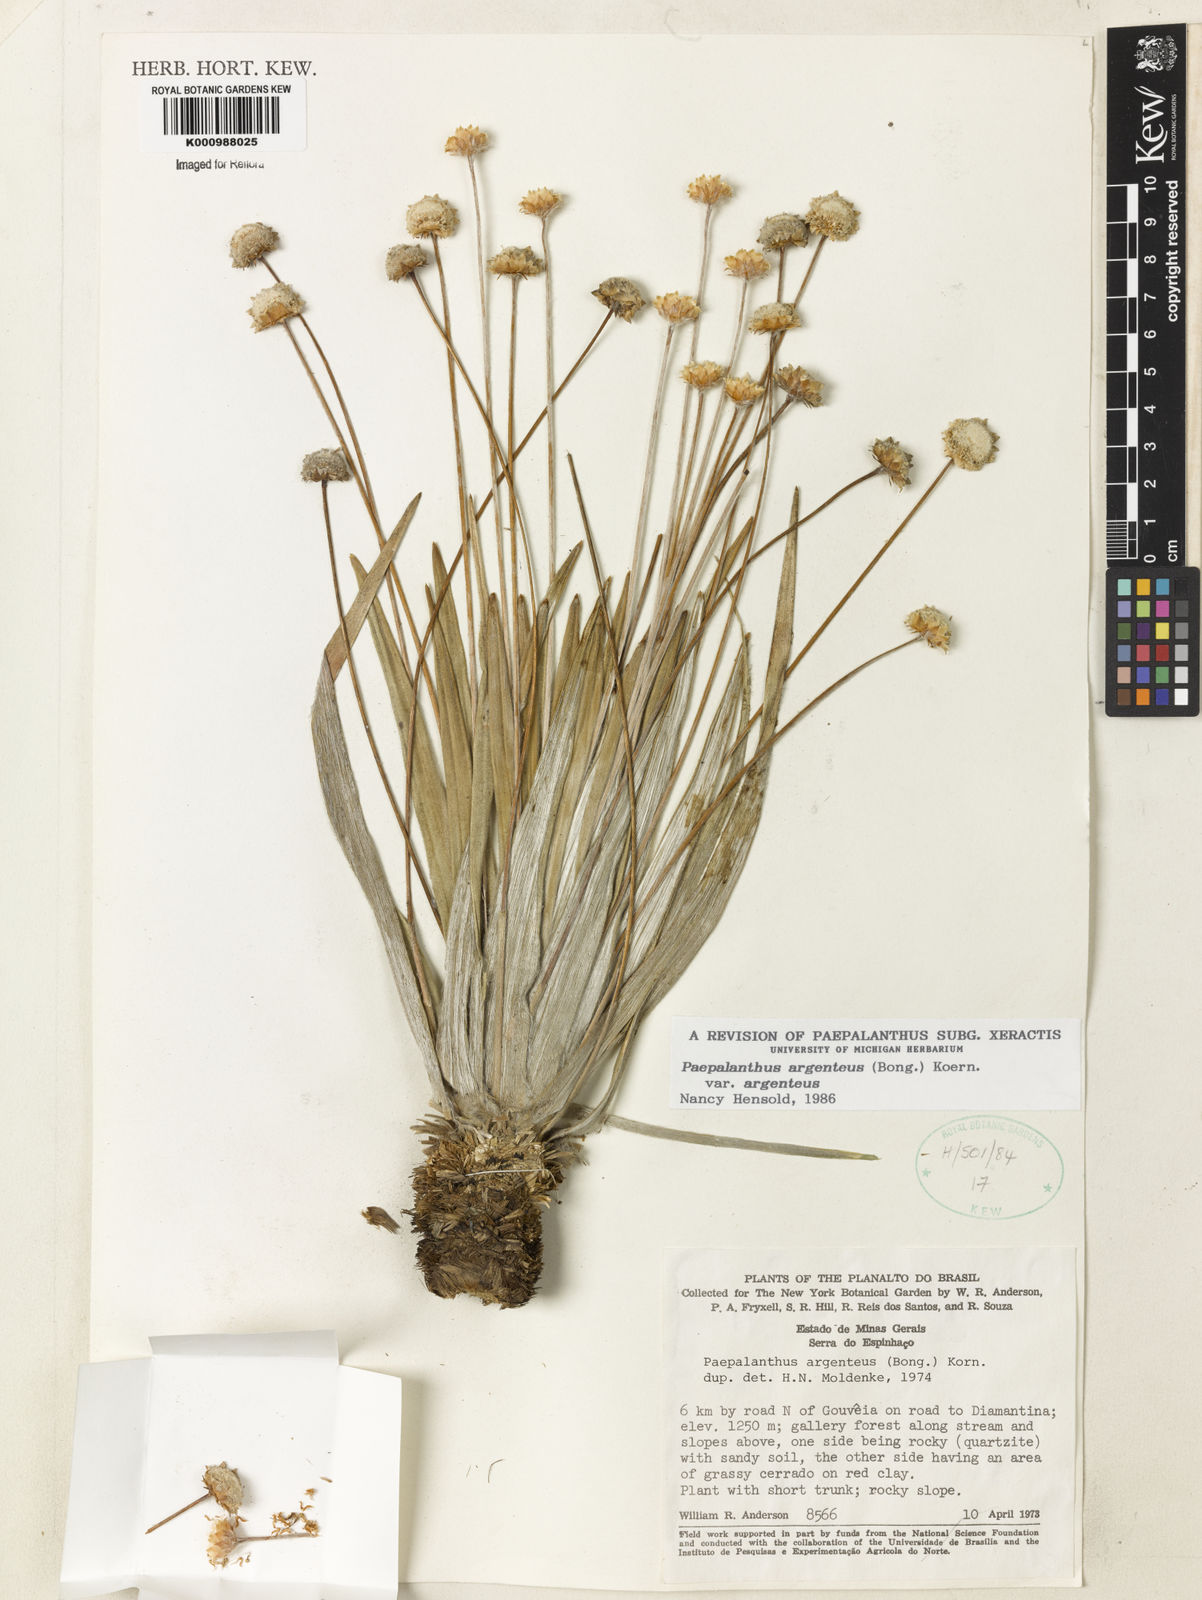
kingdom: Plantae
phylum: Tracheophyta
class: Liliopsida
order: Poales
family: Eriocaulaceae
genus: Paepalanthus
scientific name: Paepalanthus
